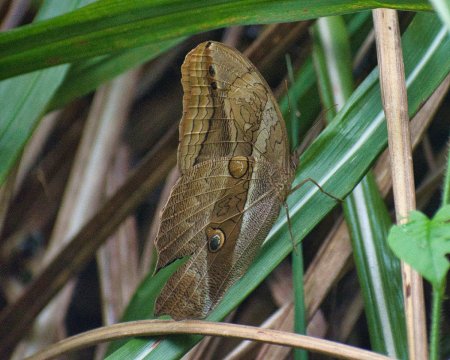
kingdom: Animalia
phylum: Arthropoda
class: Insecta
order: Lepidoptera
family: Nymphalidae
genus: Eryphanis
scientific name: Eryphanis lycomedon
